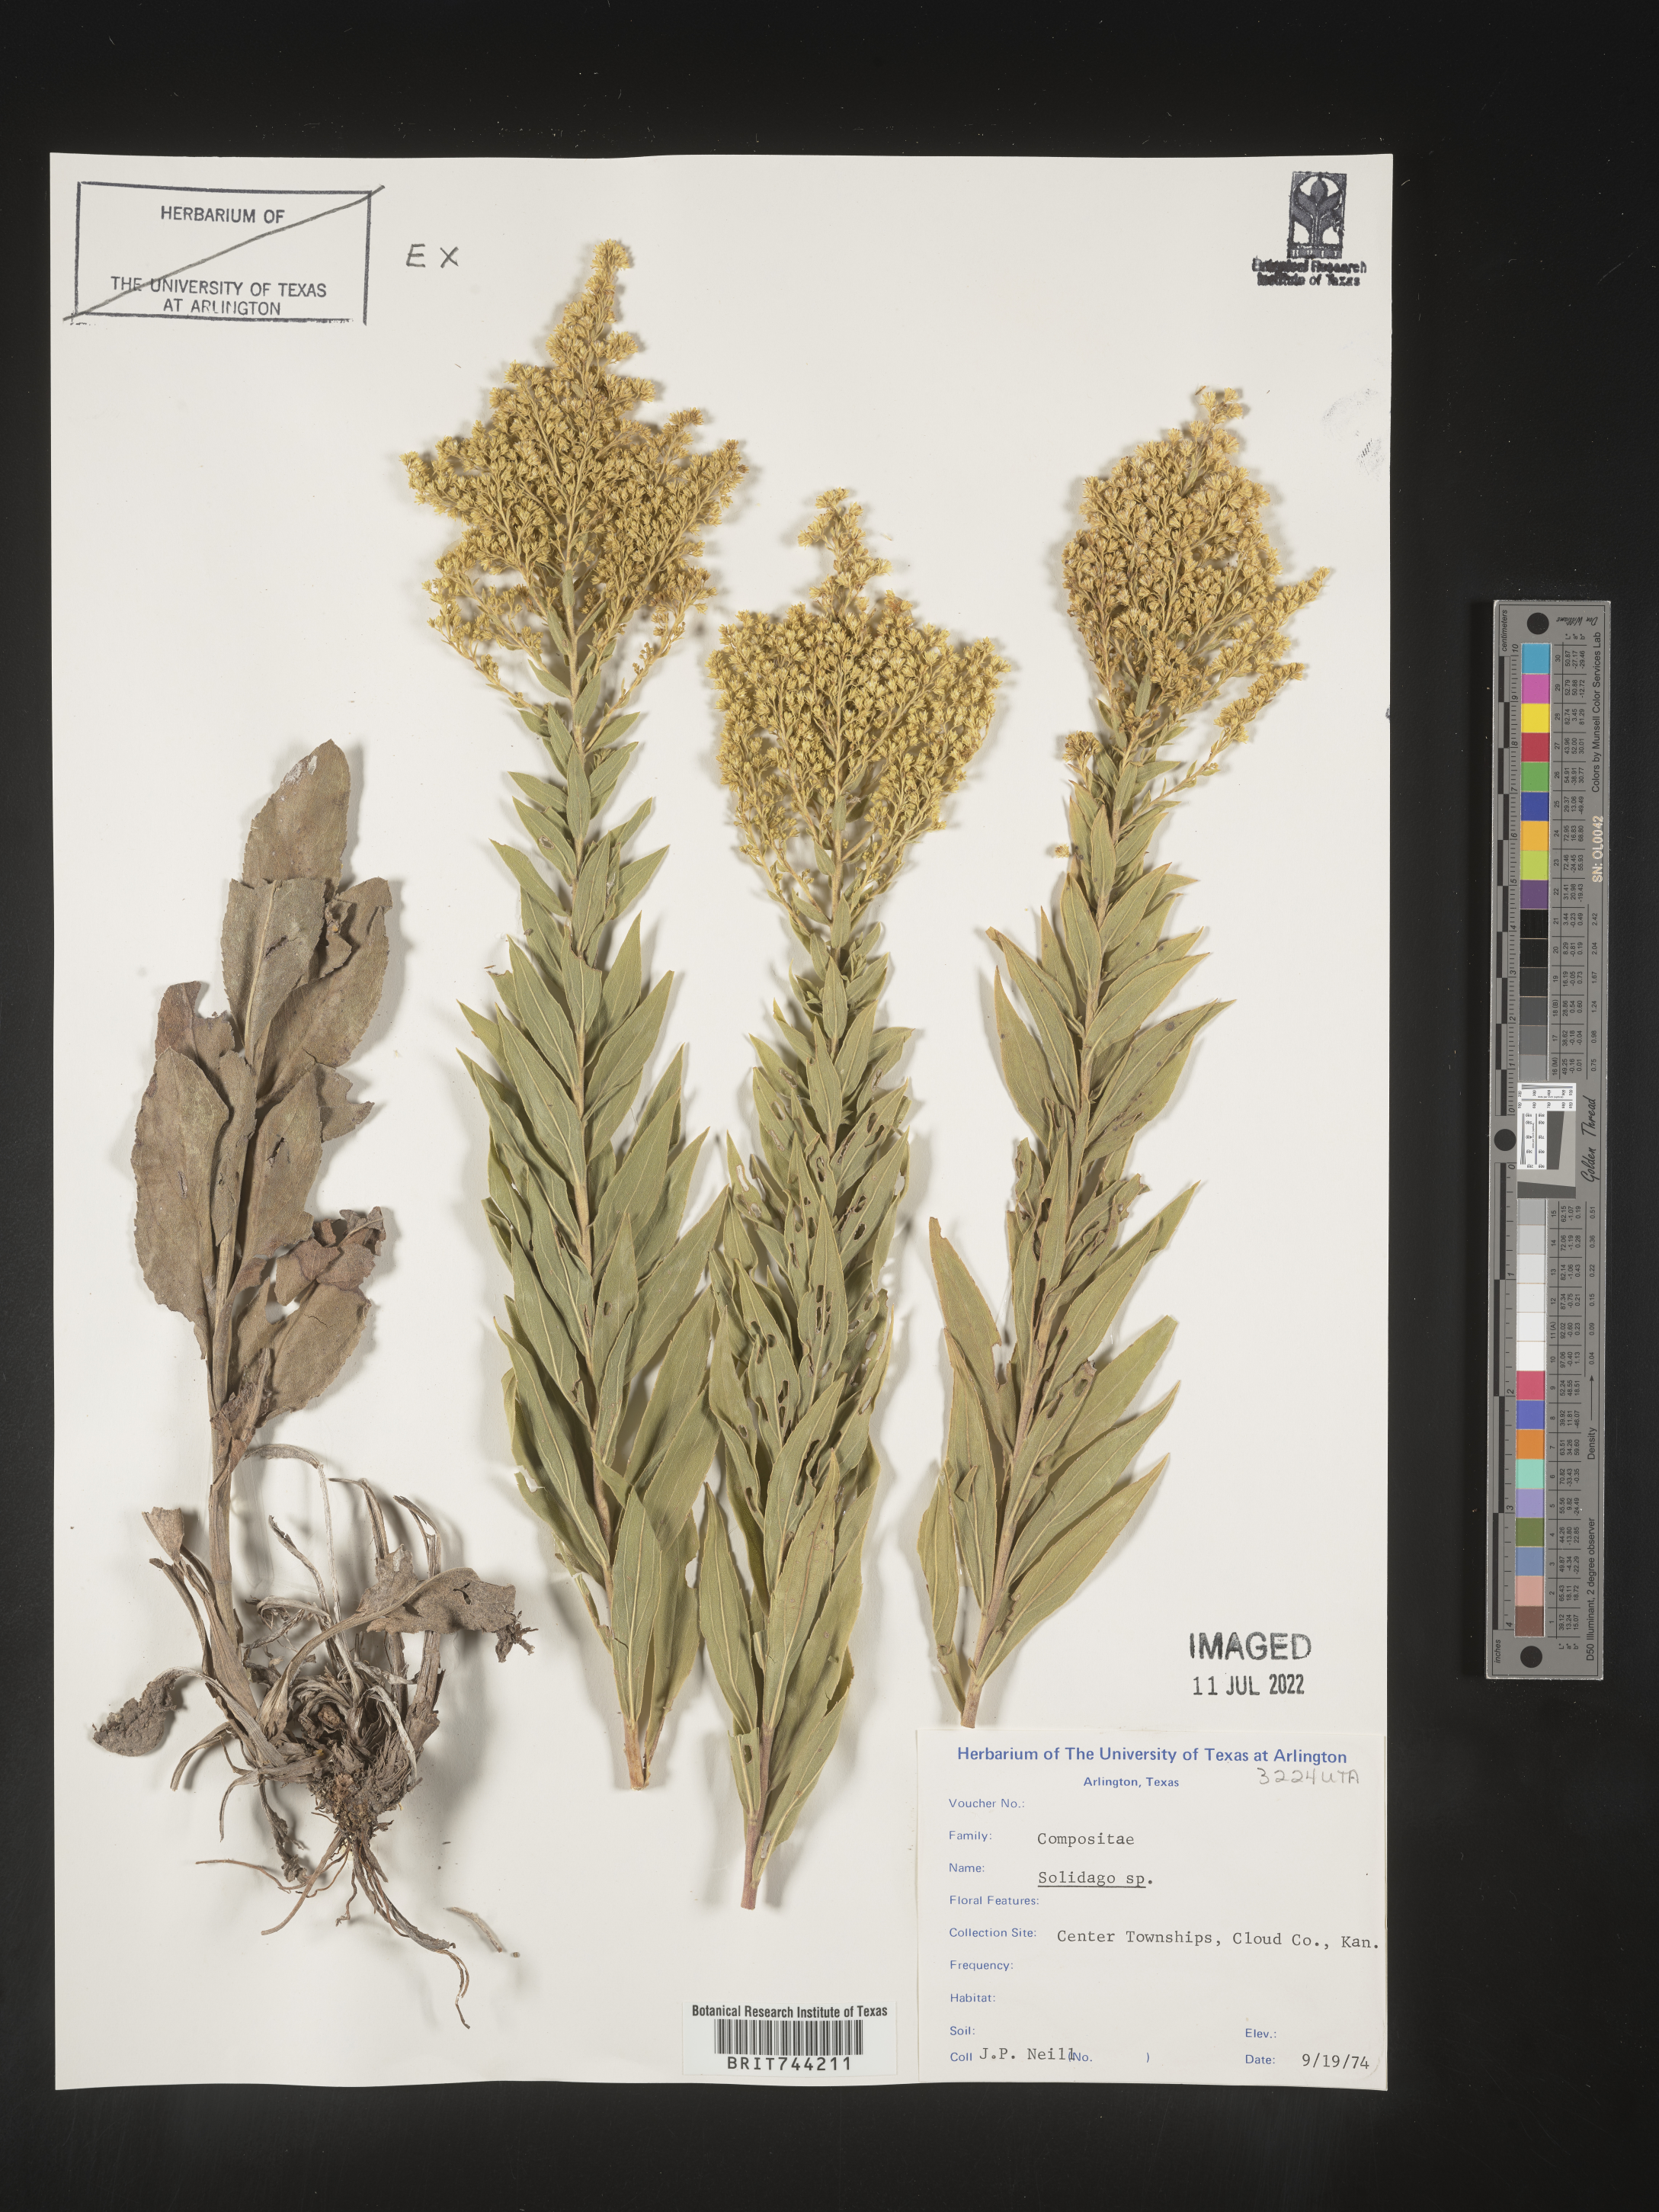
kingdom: Plantae
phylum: Tracheophyta
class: Magnoliopsida
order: Asterales
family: Asteraceae
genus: Solidago
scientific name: Solidago altissima
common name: Late goldenrod
